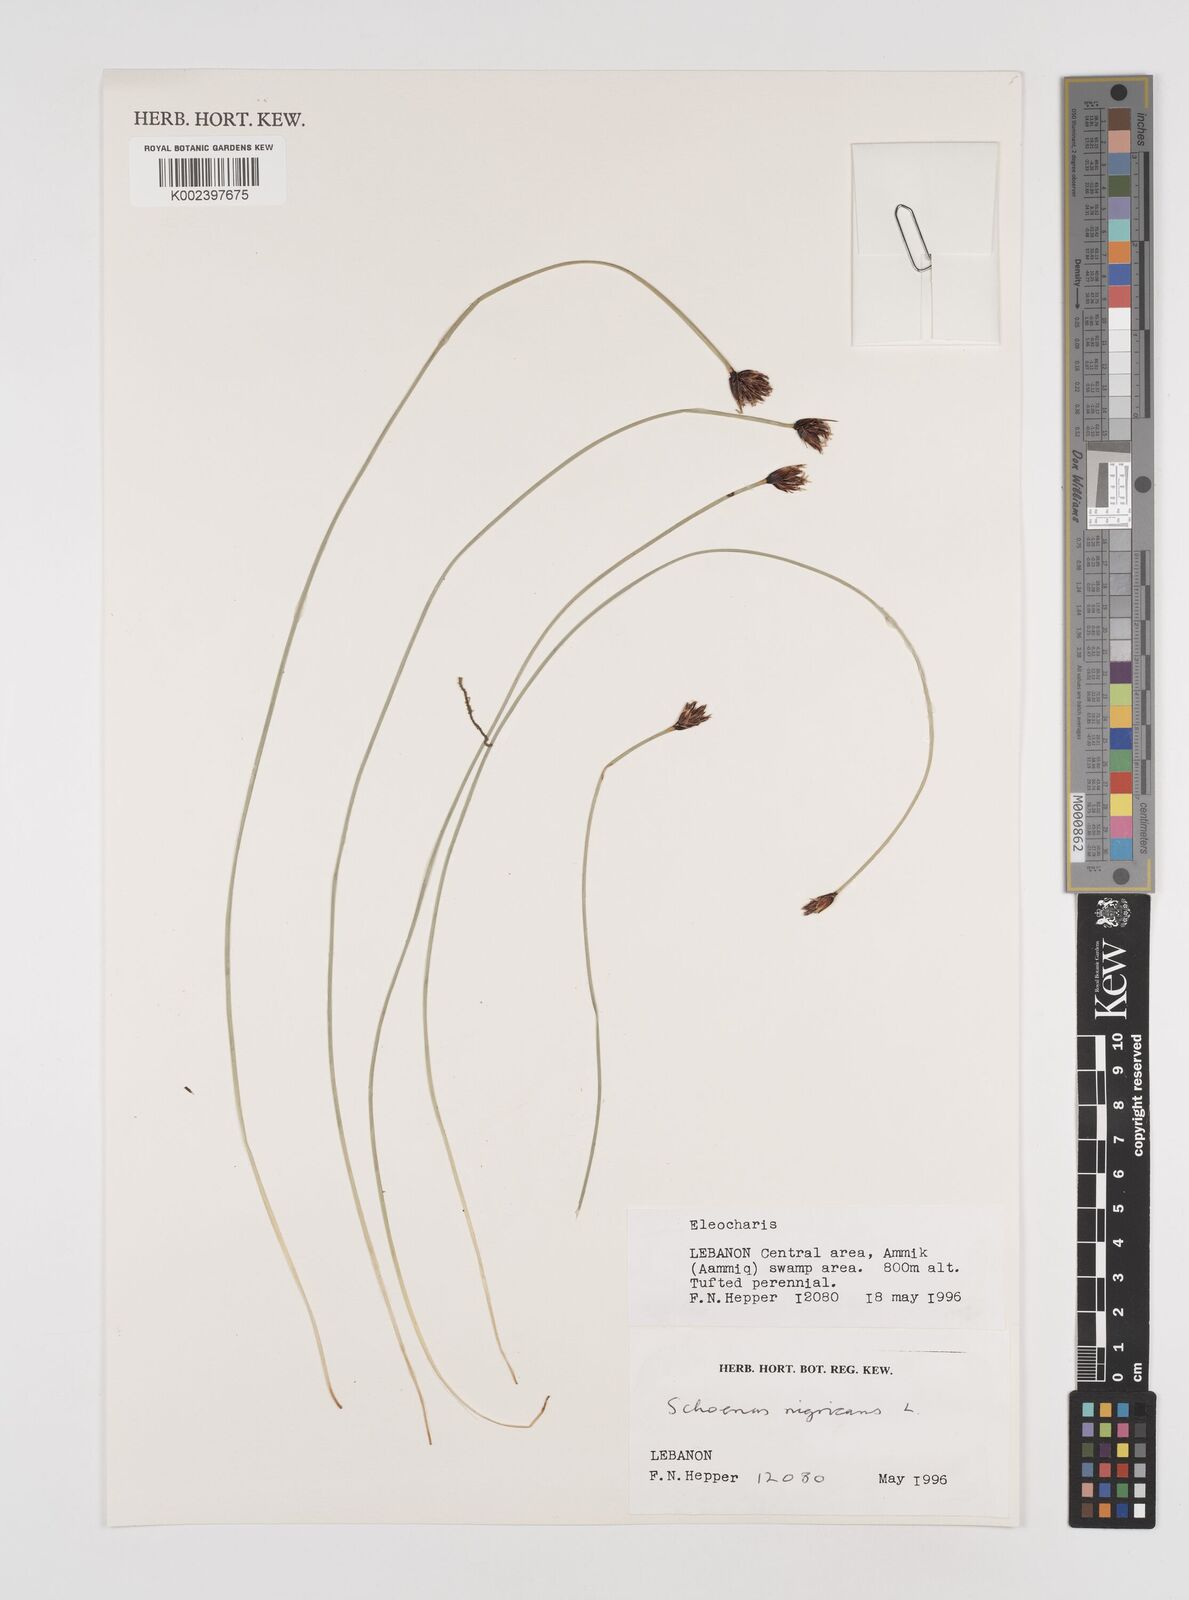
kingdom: Plantae
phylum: Tracheophyta
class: Liliopsida
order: Poales
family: Cyperaceae
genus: Schoenus
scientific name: Schoenus nigricans
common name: Black bog-rush
